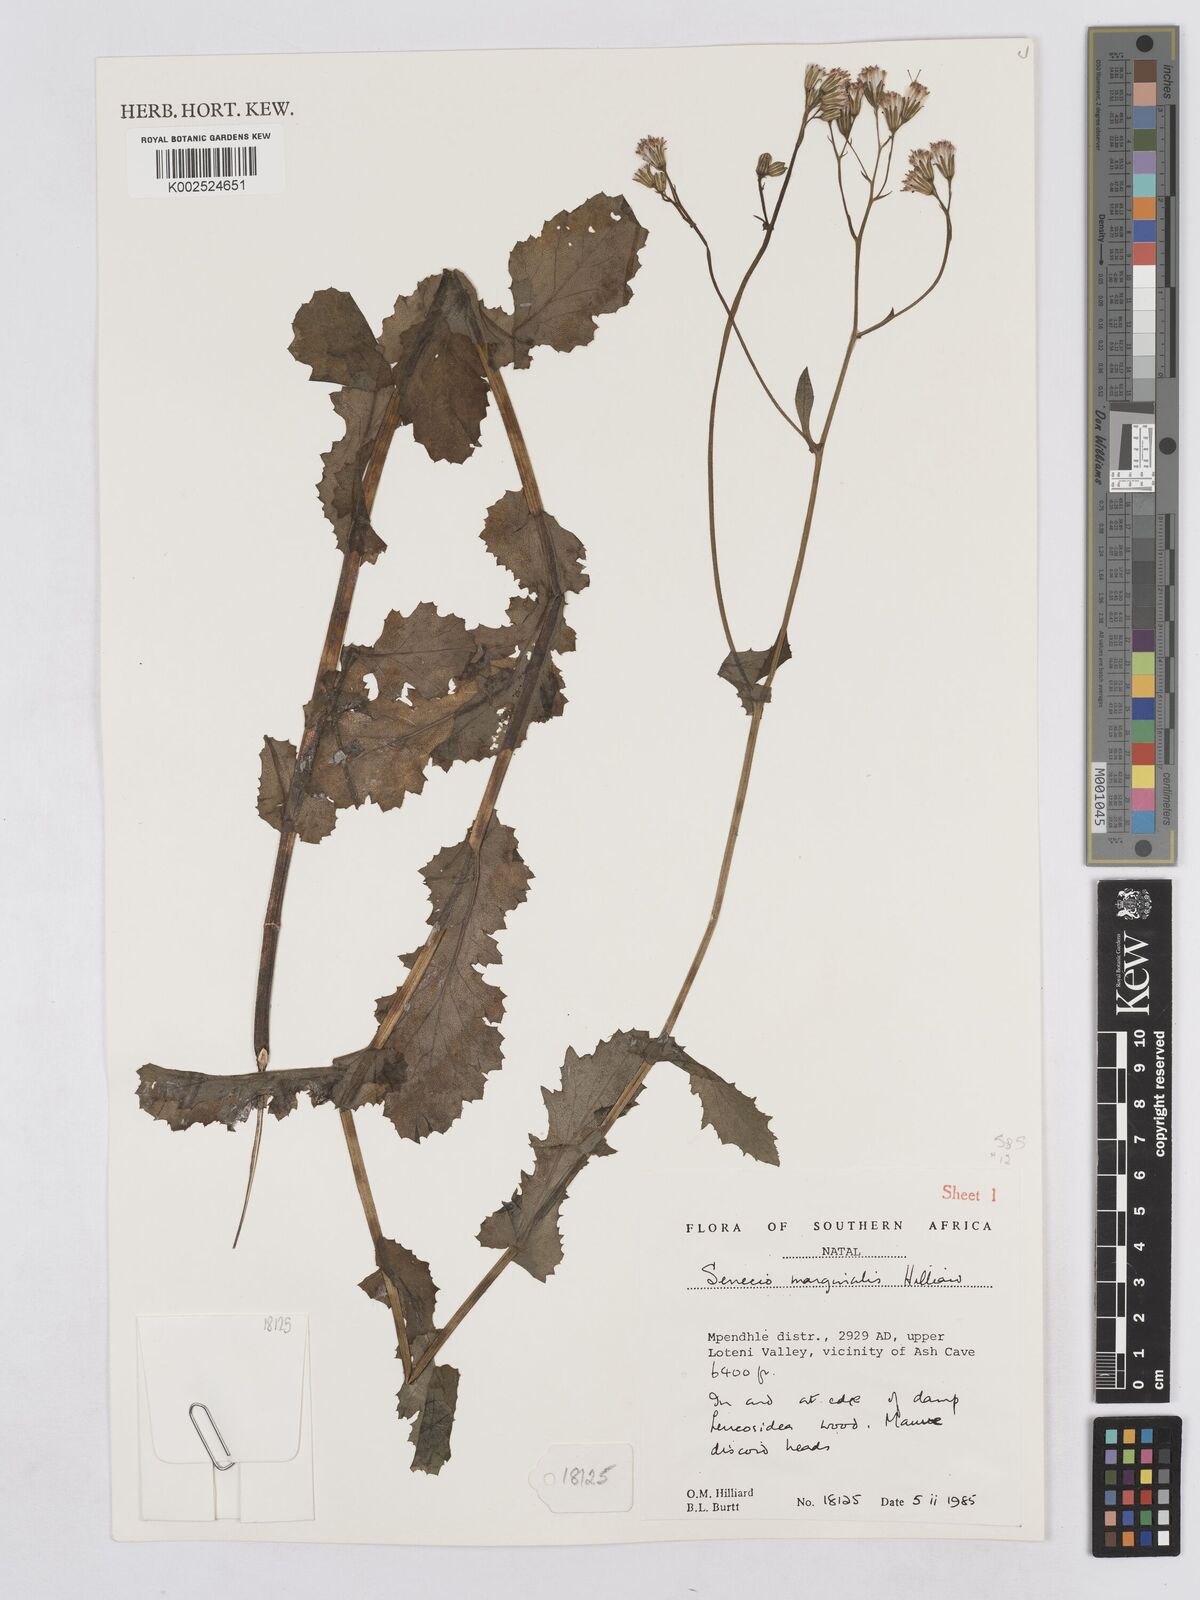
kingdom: Plantae
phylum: Tracheophyta
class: Magnoliopsida
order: Asterales
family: Asteraceae
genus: Senecio
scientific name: Senecio marginalis
